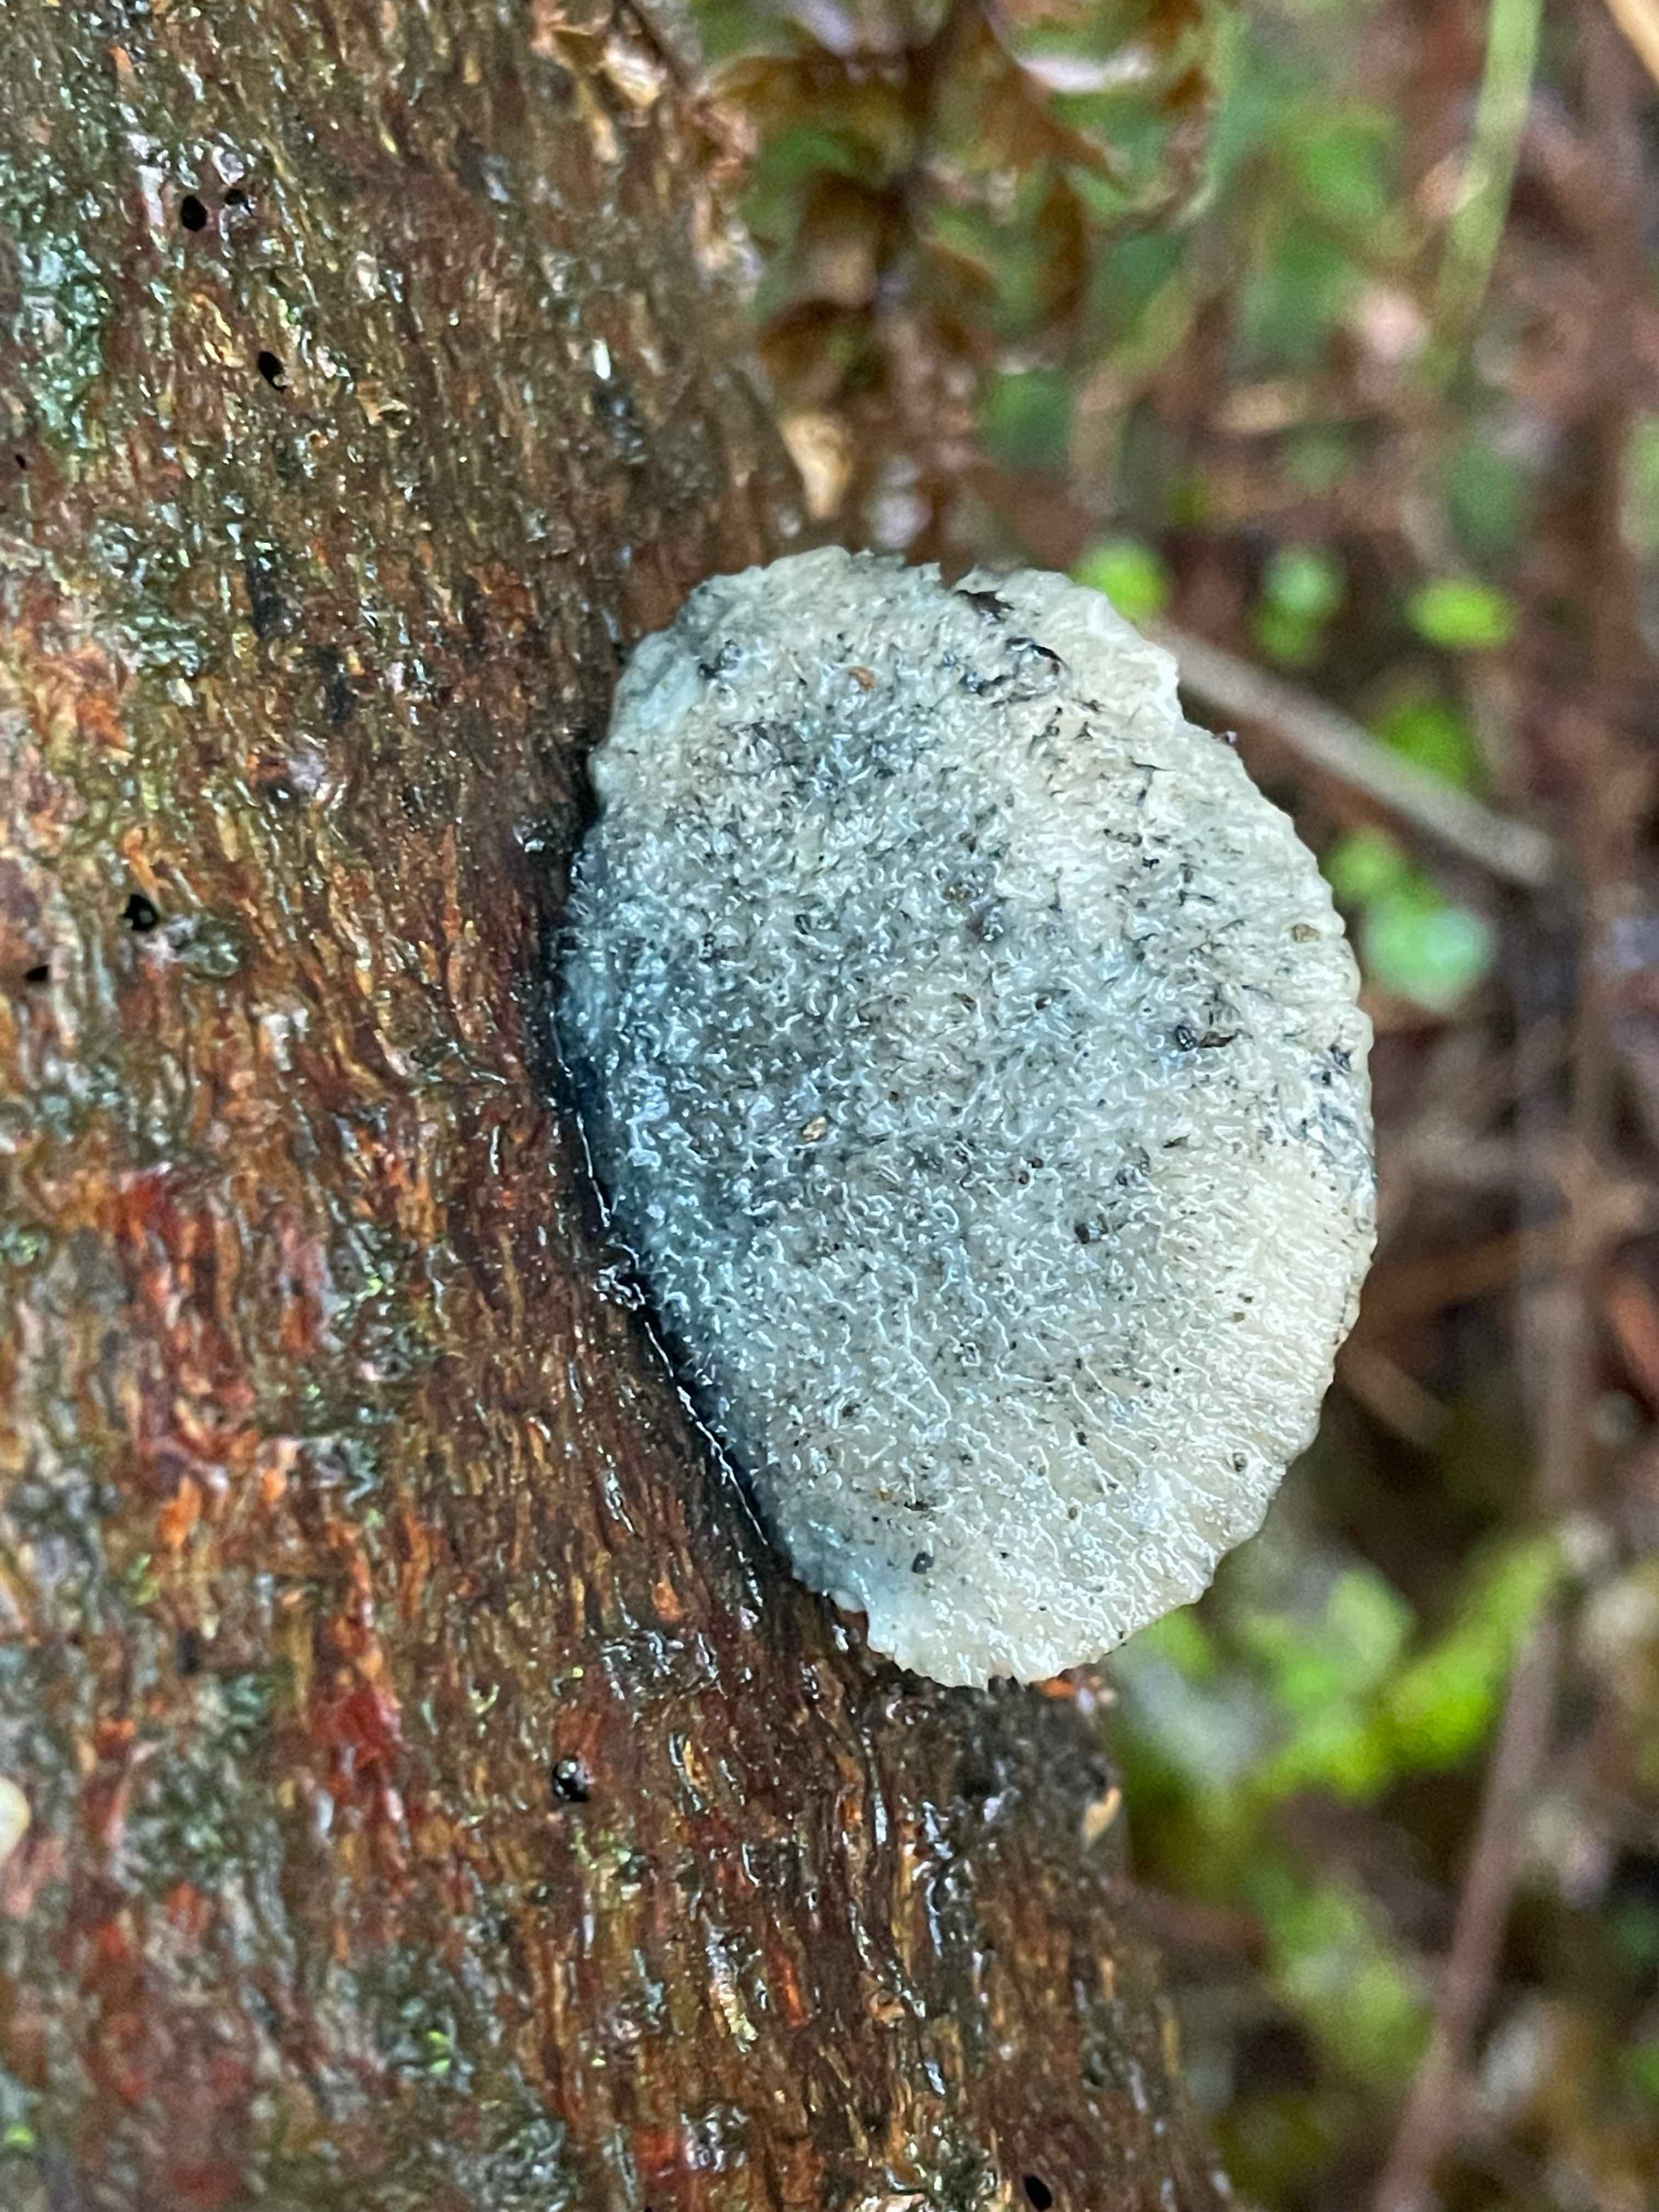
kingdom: Fungi
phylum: Basidiomycota
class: Agaricomycetes
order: Polyporales
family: Polyporaceae
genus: Cyanosporus
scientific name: Cyanosporus caesius
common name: blålig kødporesvamp
